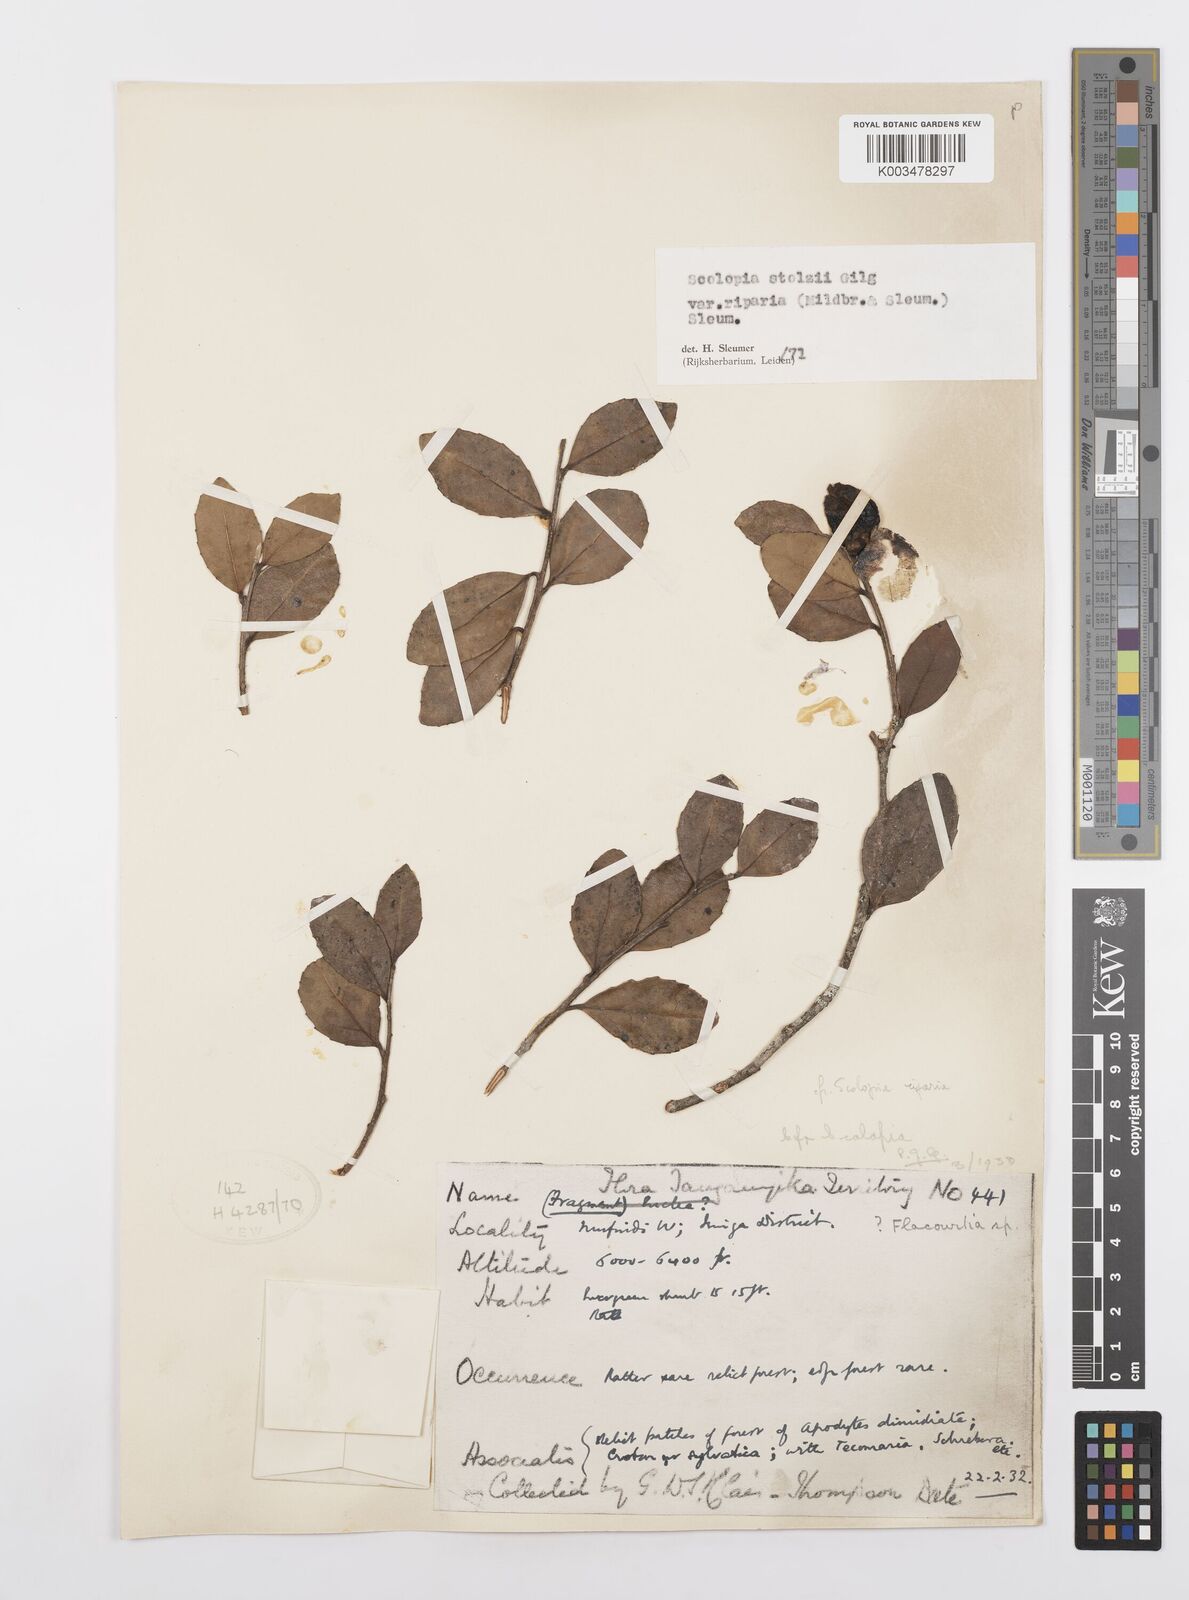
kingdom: Plantae
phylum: Tracheophyta
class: Magnoliopsida
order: Malpighiales
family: Salicaceae
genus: Scolopia
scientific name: Scolopia stolzii
